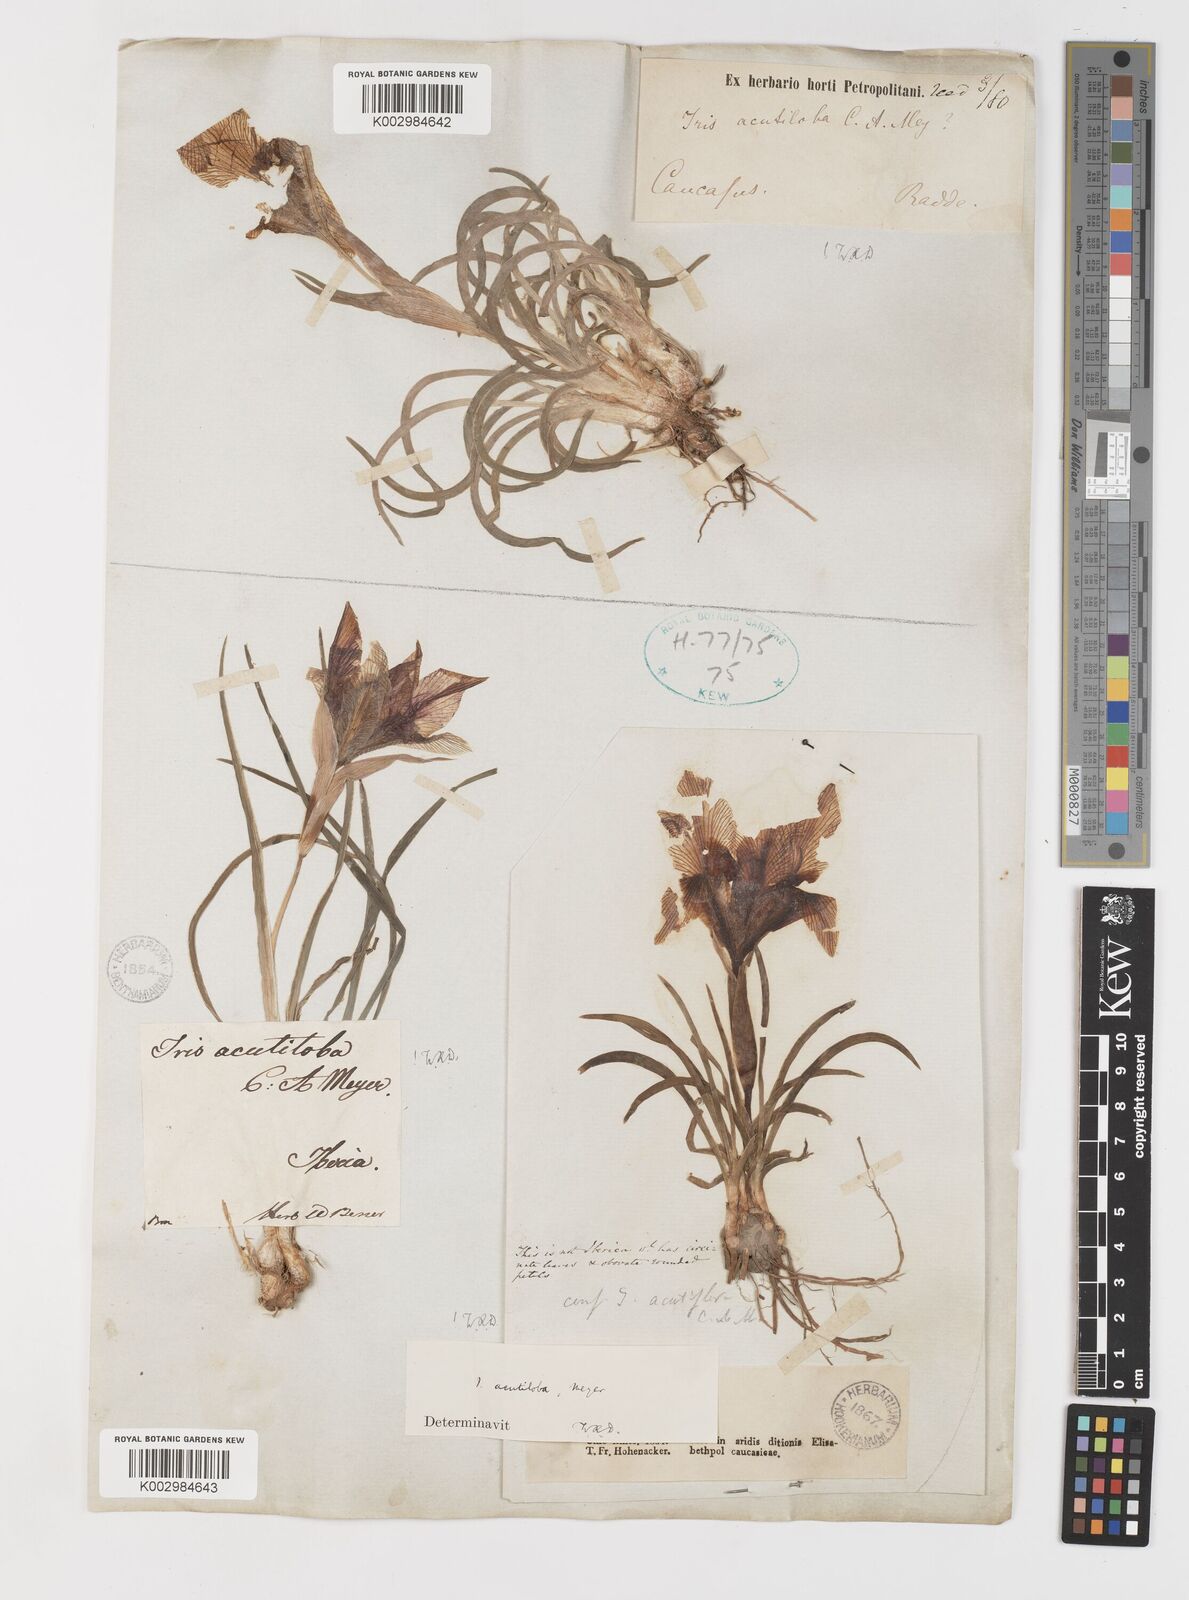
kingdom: Plantae
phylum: Tracheophyta
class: Liliopsida
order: Asparagales
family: Iridaceae
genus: Iris
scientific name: Iris acutiloba
